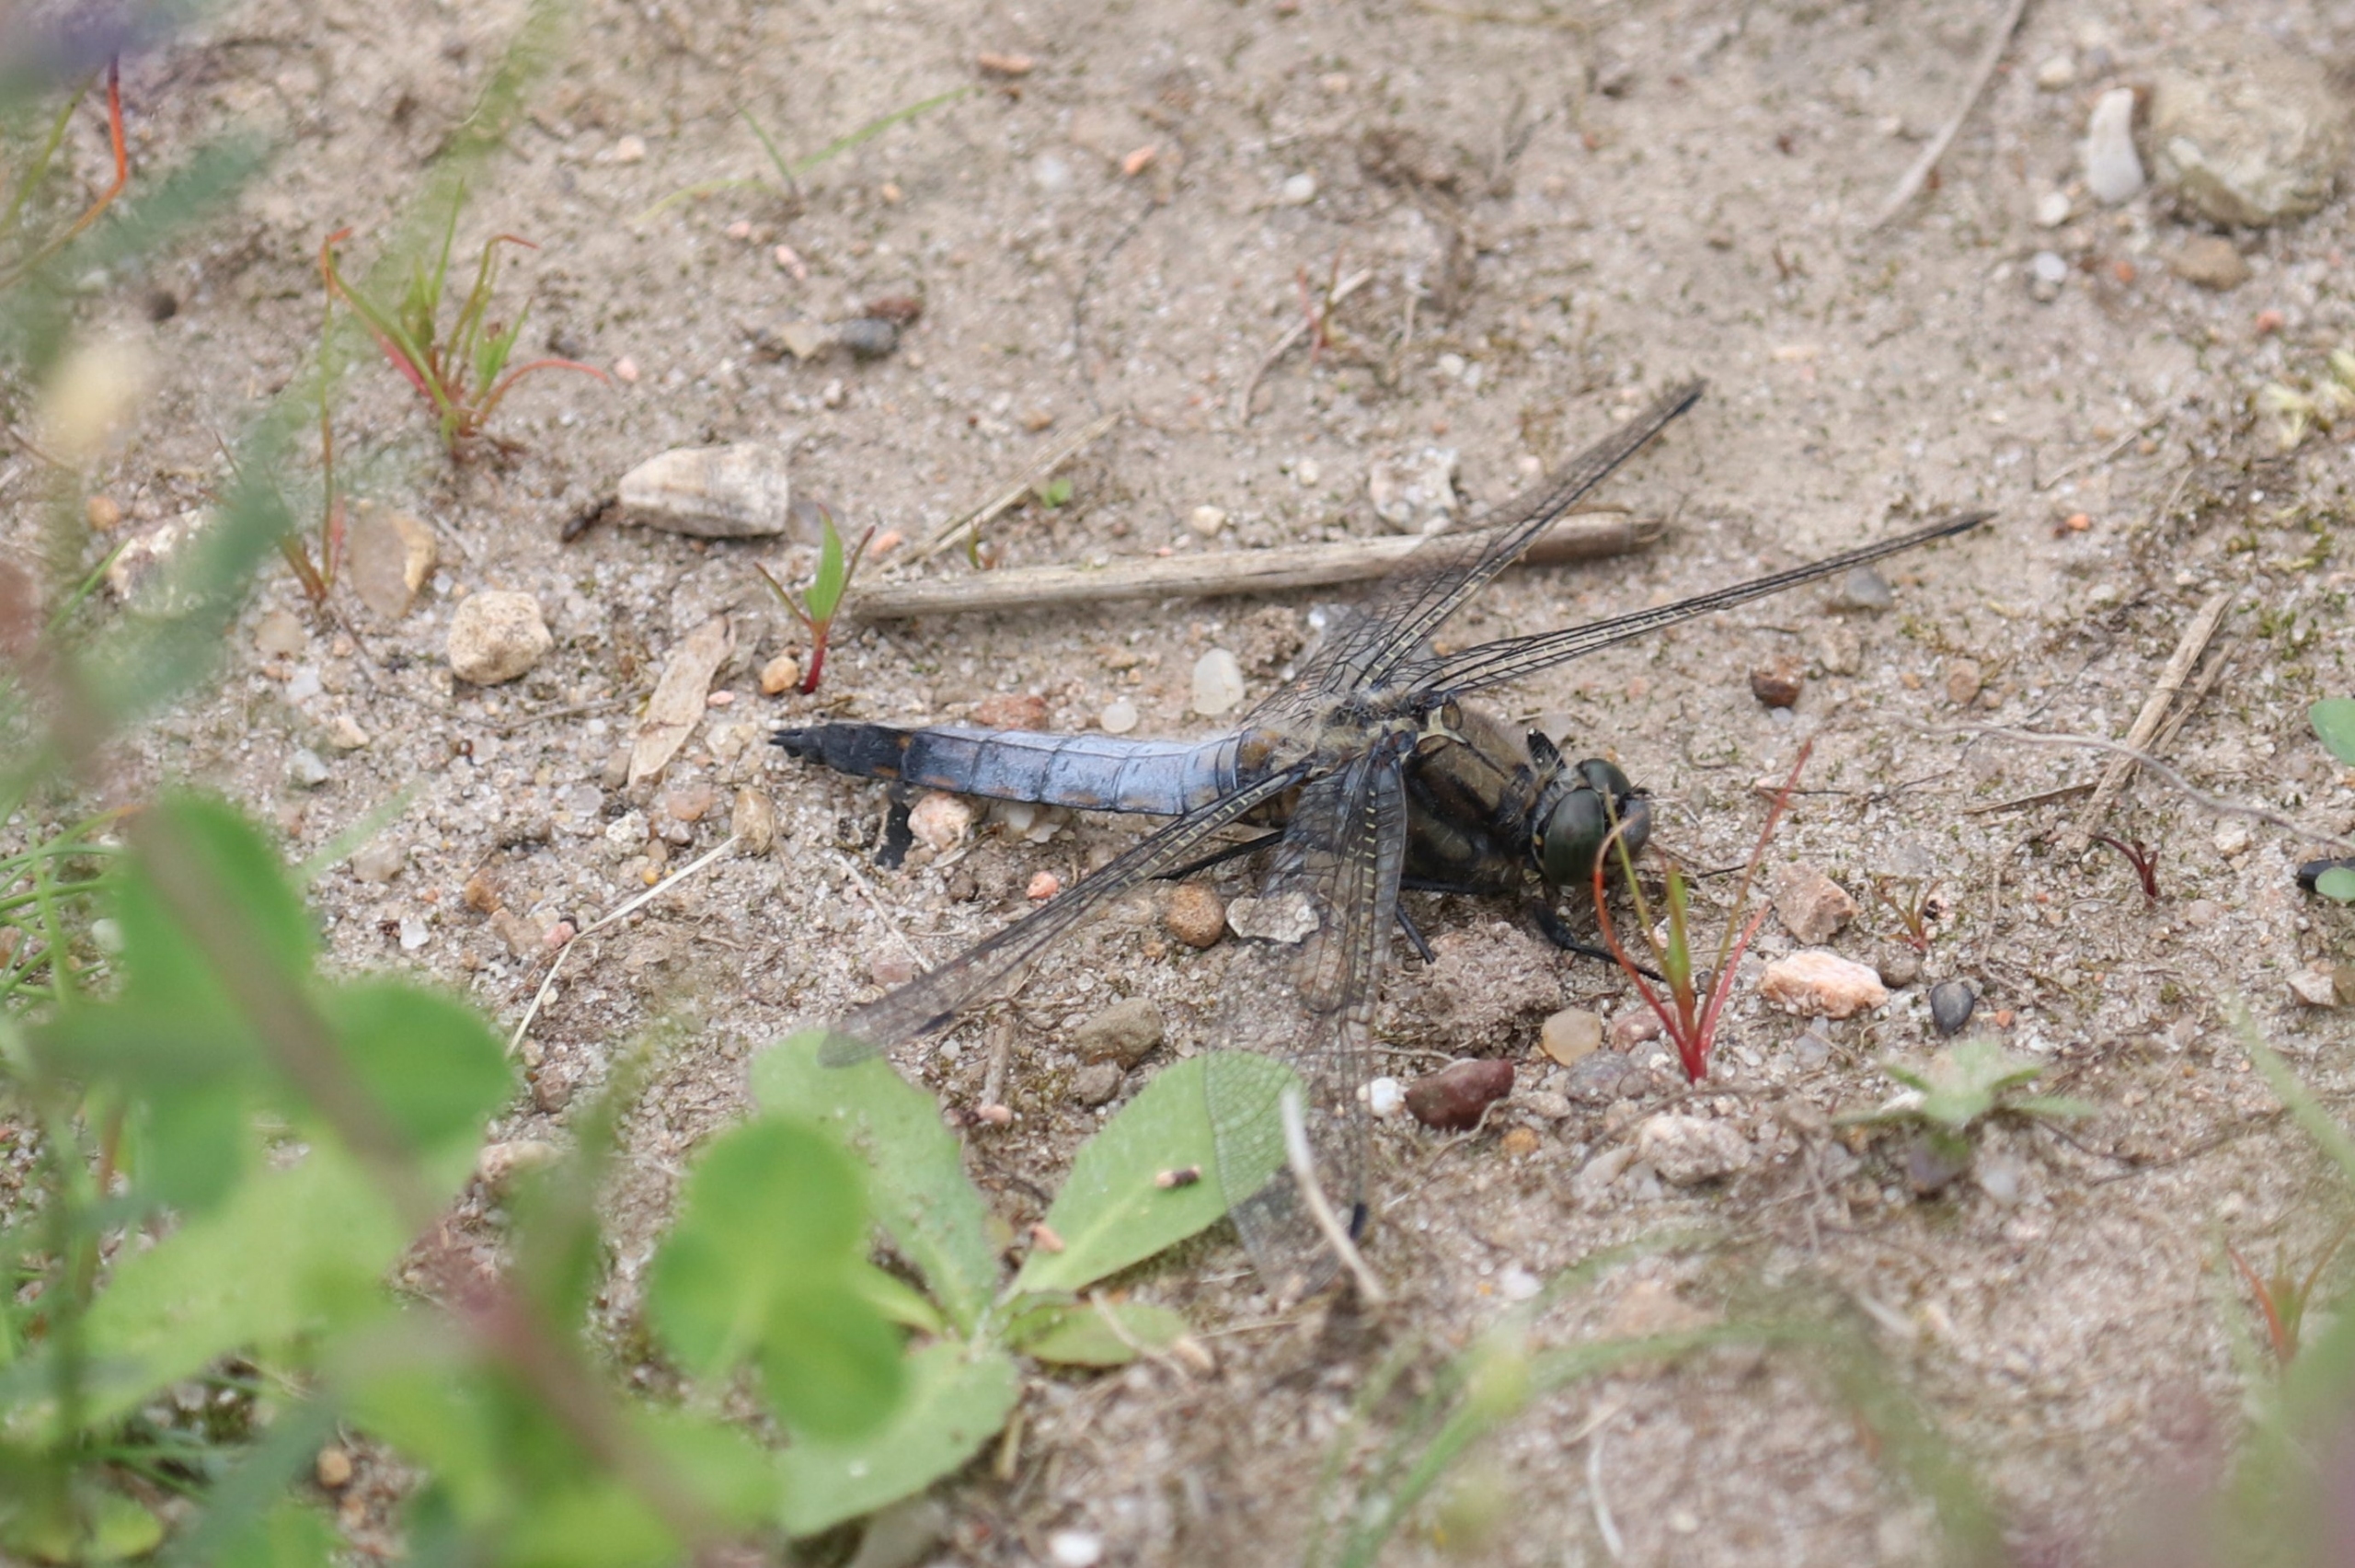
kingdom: Animalia
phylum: Arthropoda
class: Insecta
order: Odonata
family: Libellulidae
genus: Orthetrum
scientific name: Orthetrum cancellatum
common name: Stor blåpil
